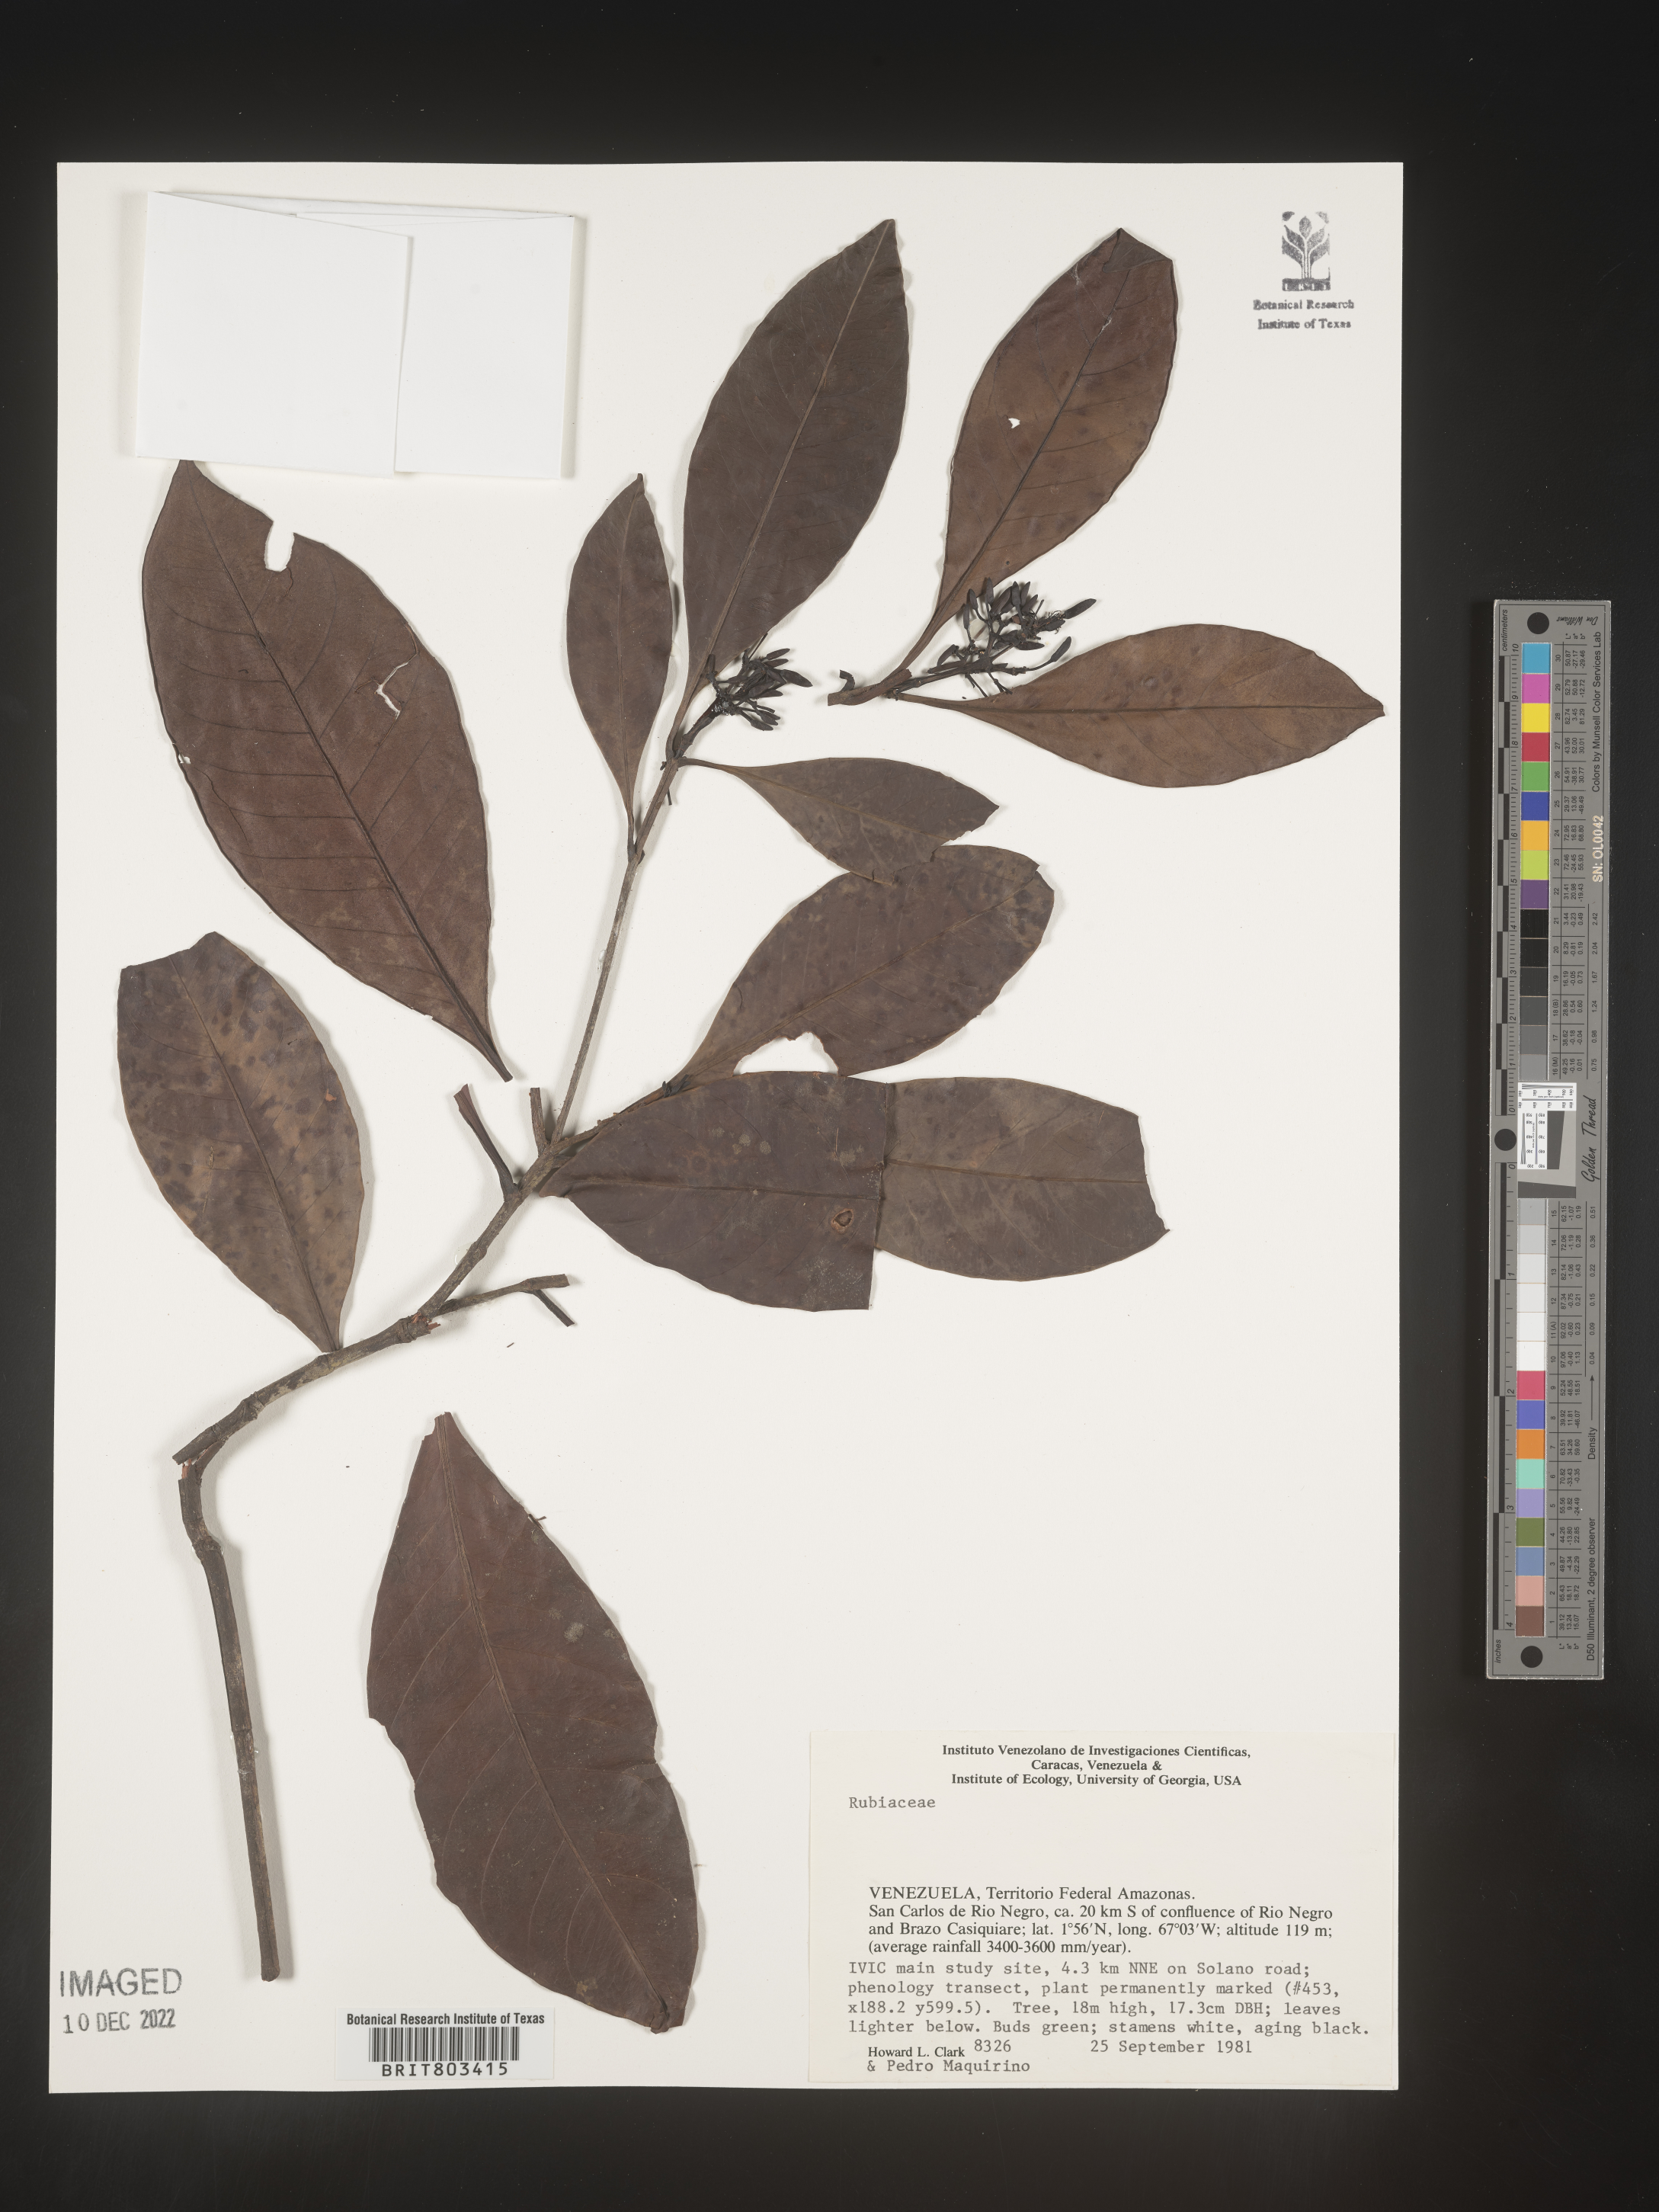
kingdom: Plantae
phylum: Tracheophyta
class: Magnoliopsida
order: Malpighiales
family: Clusiaceae
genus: Tovomita
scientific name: Tovomita
